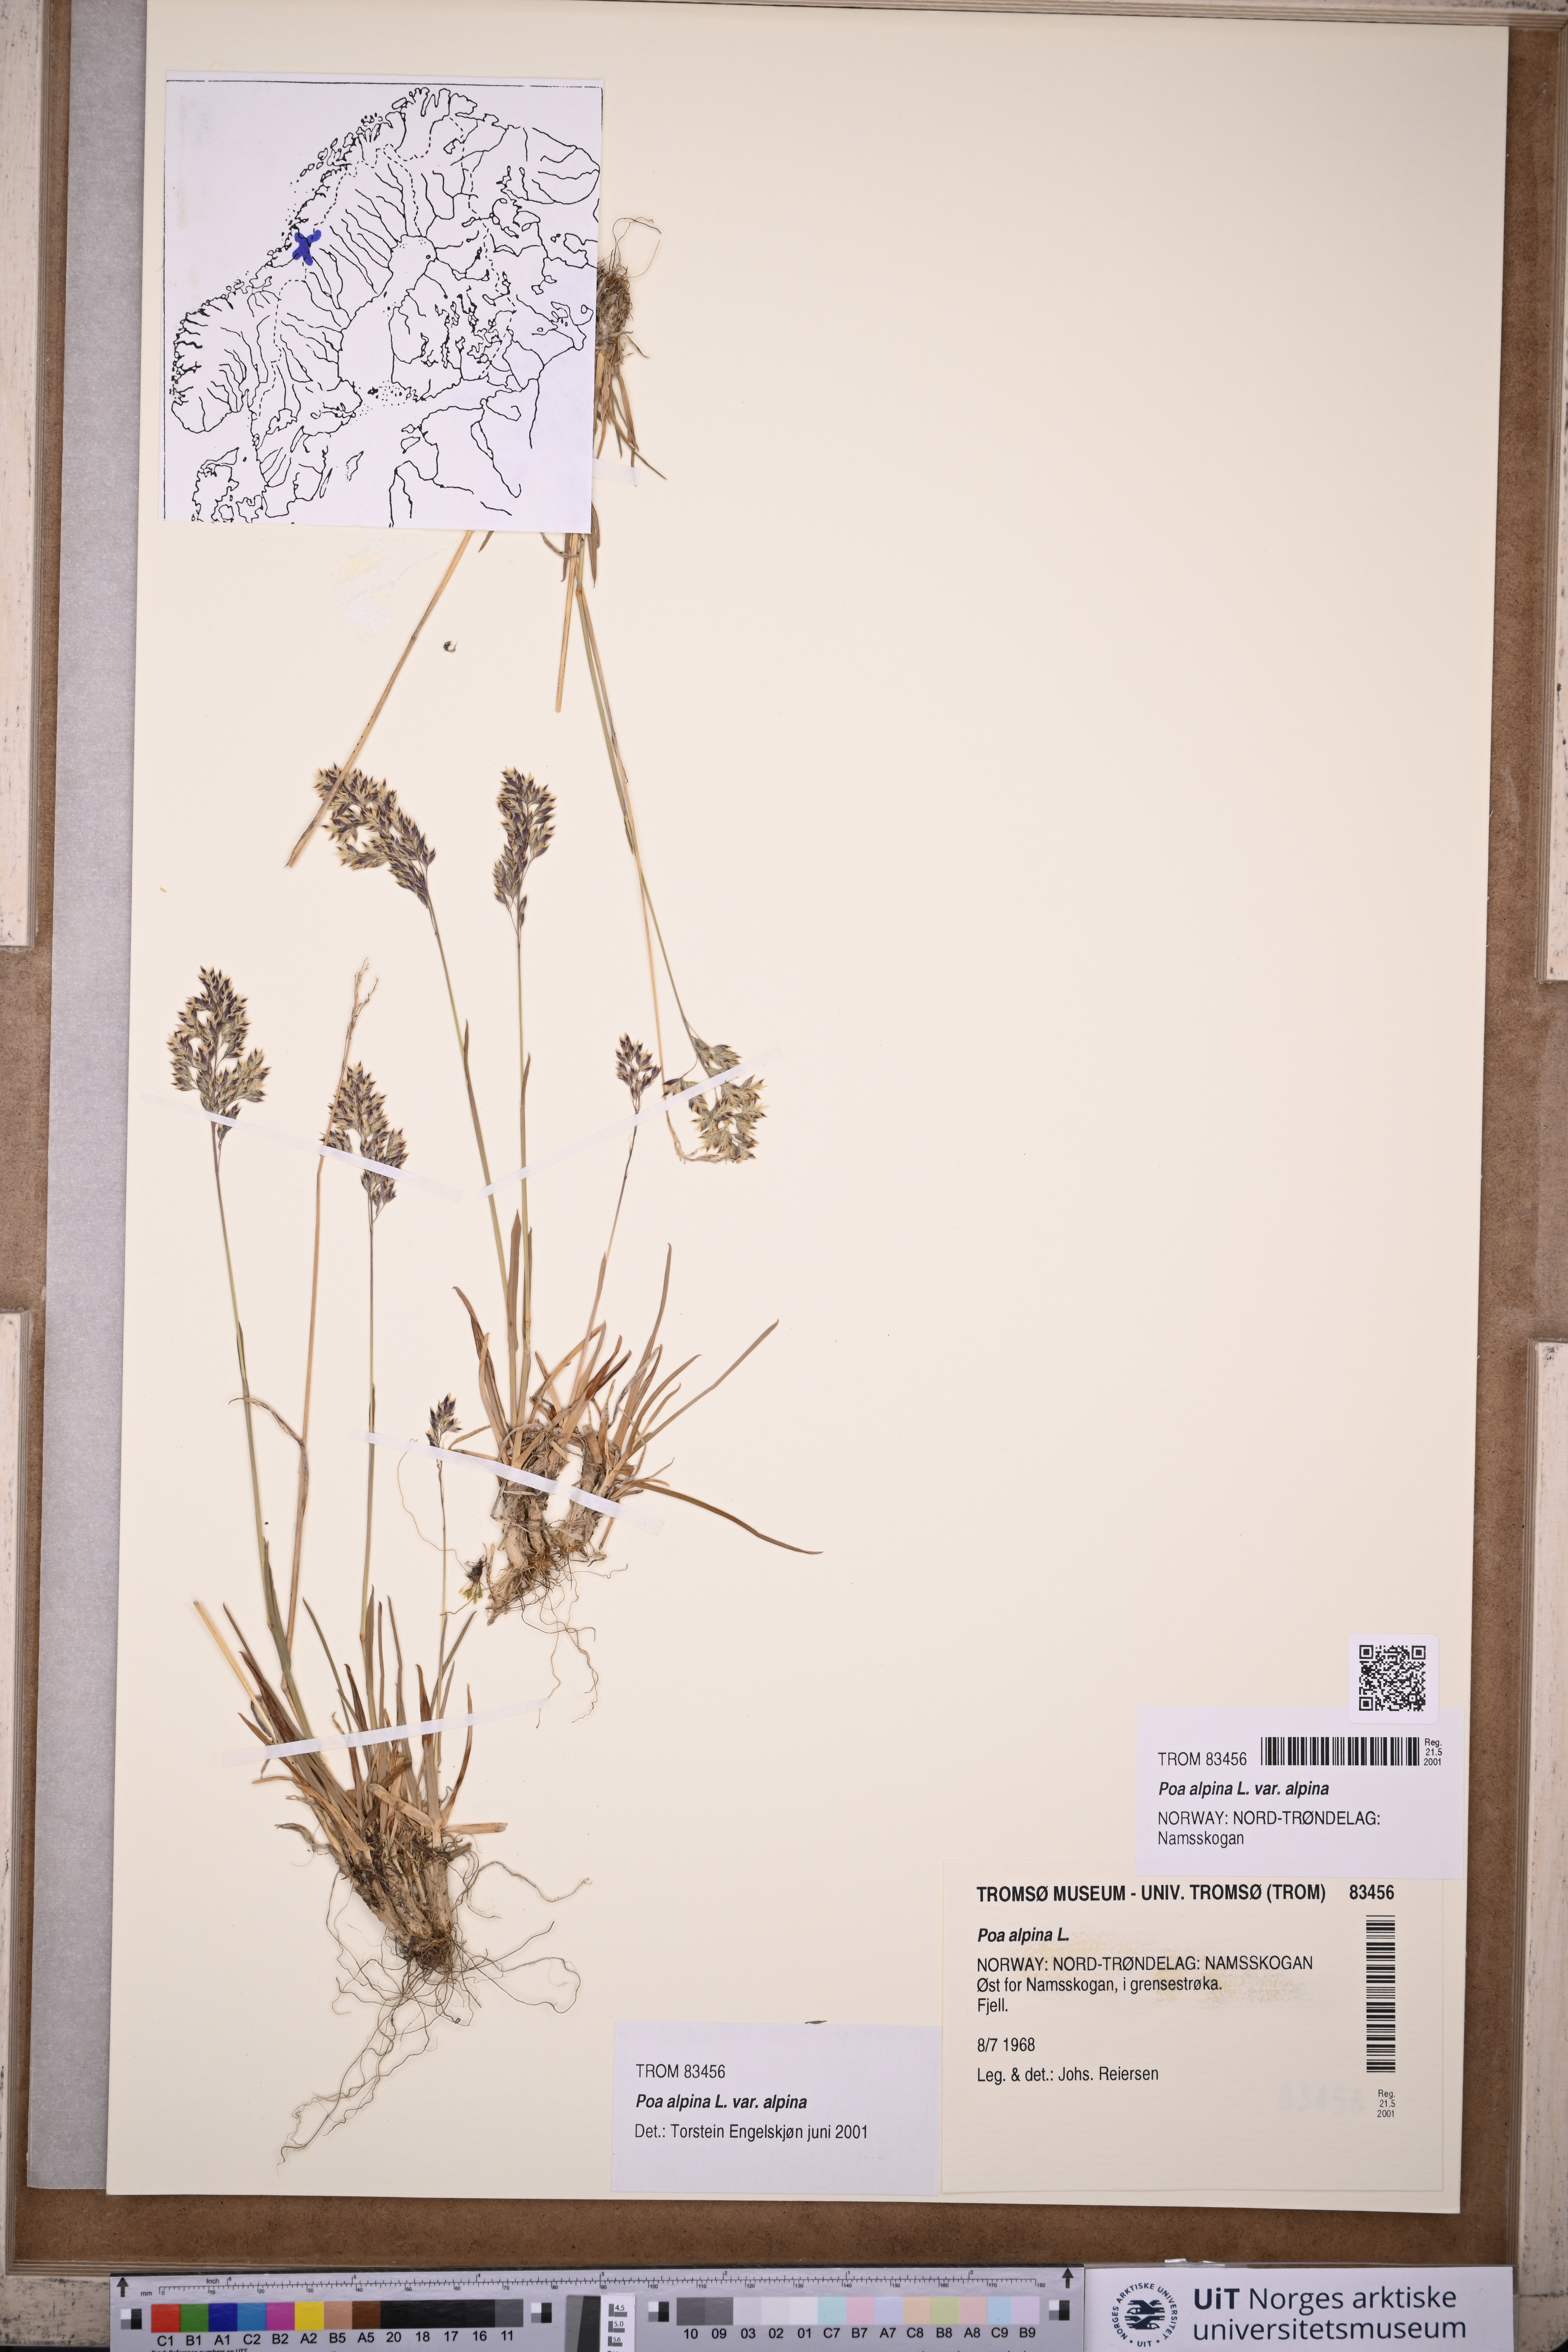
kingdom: Plantae
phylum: Tracheophyta
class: Liliopsida
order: Poales
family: Poaceae
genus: Poa
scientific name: Poa alpina
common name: Alpine bluegrass
